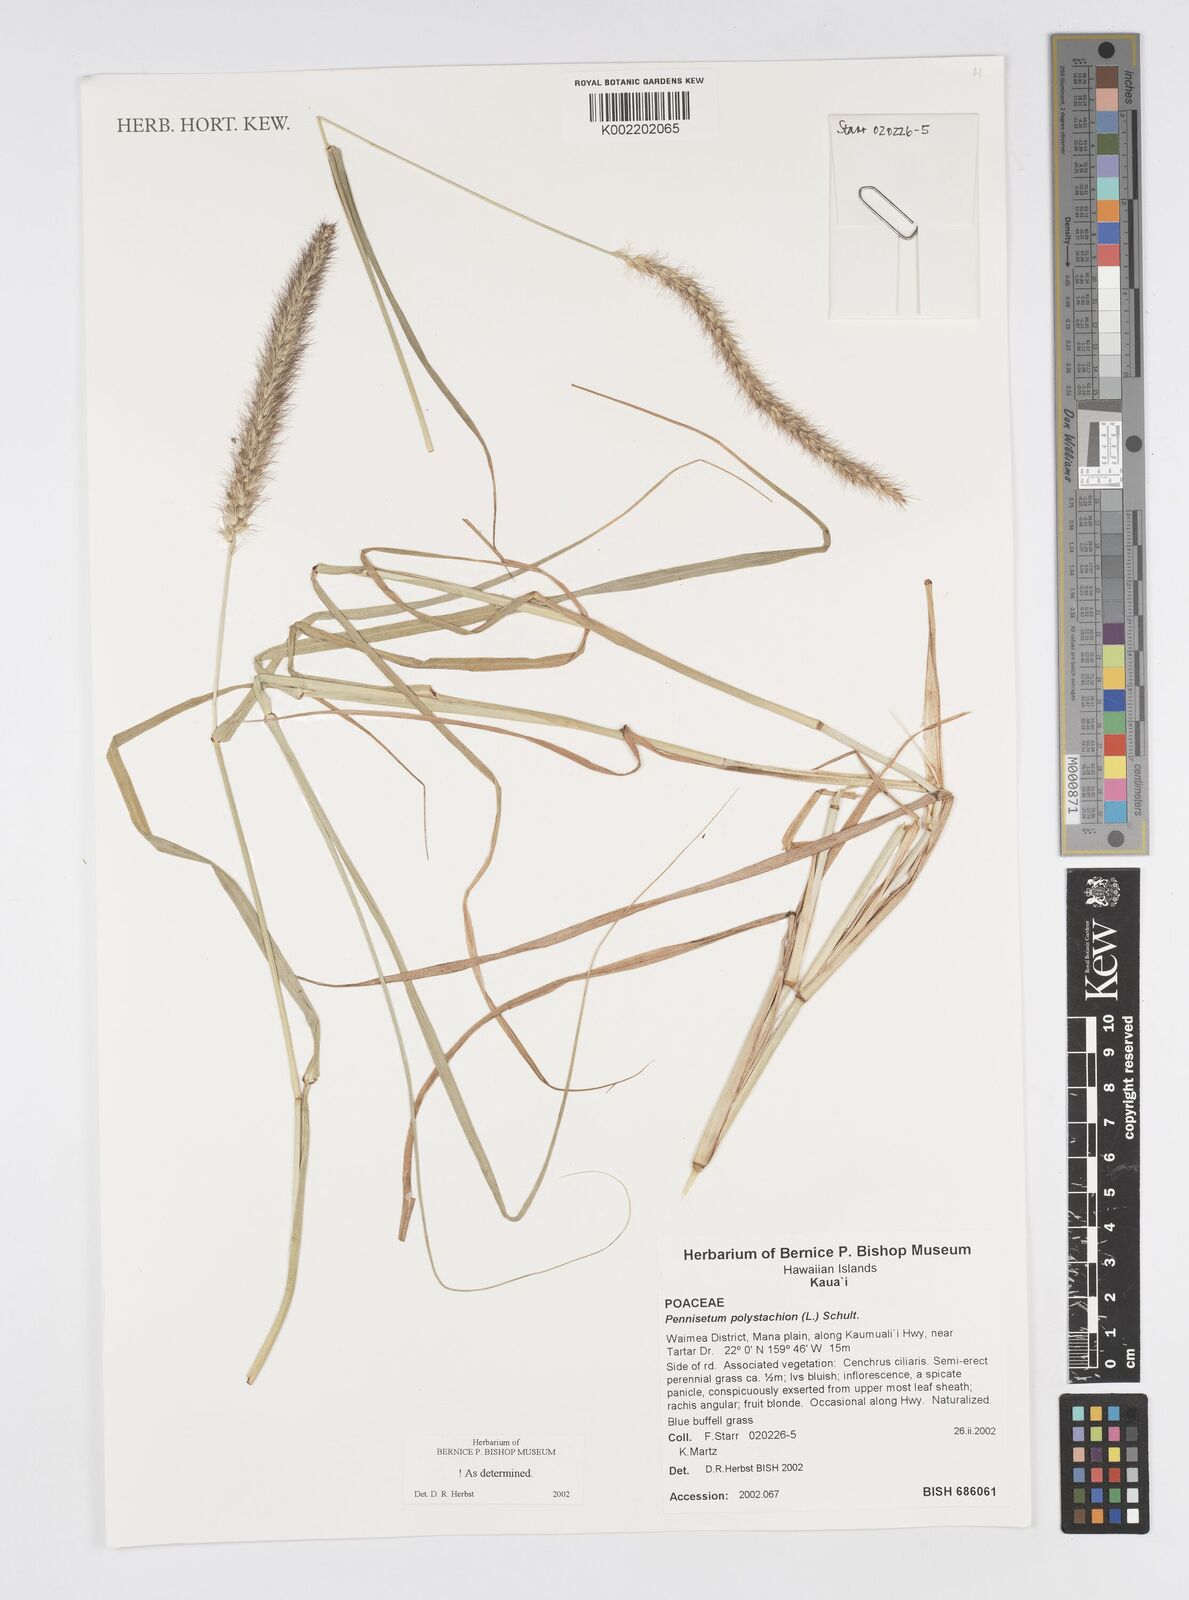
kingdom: Plantae
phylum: Tracheophyta
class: Liliopsida
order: Poales
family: Poaceae
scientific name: Poaceae
